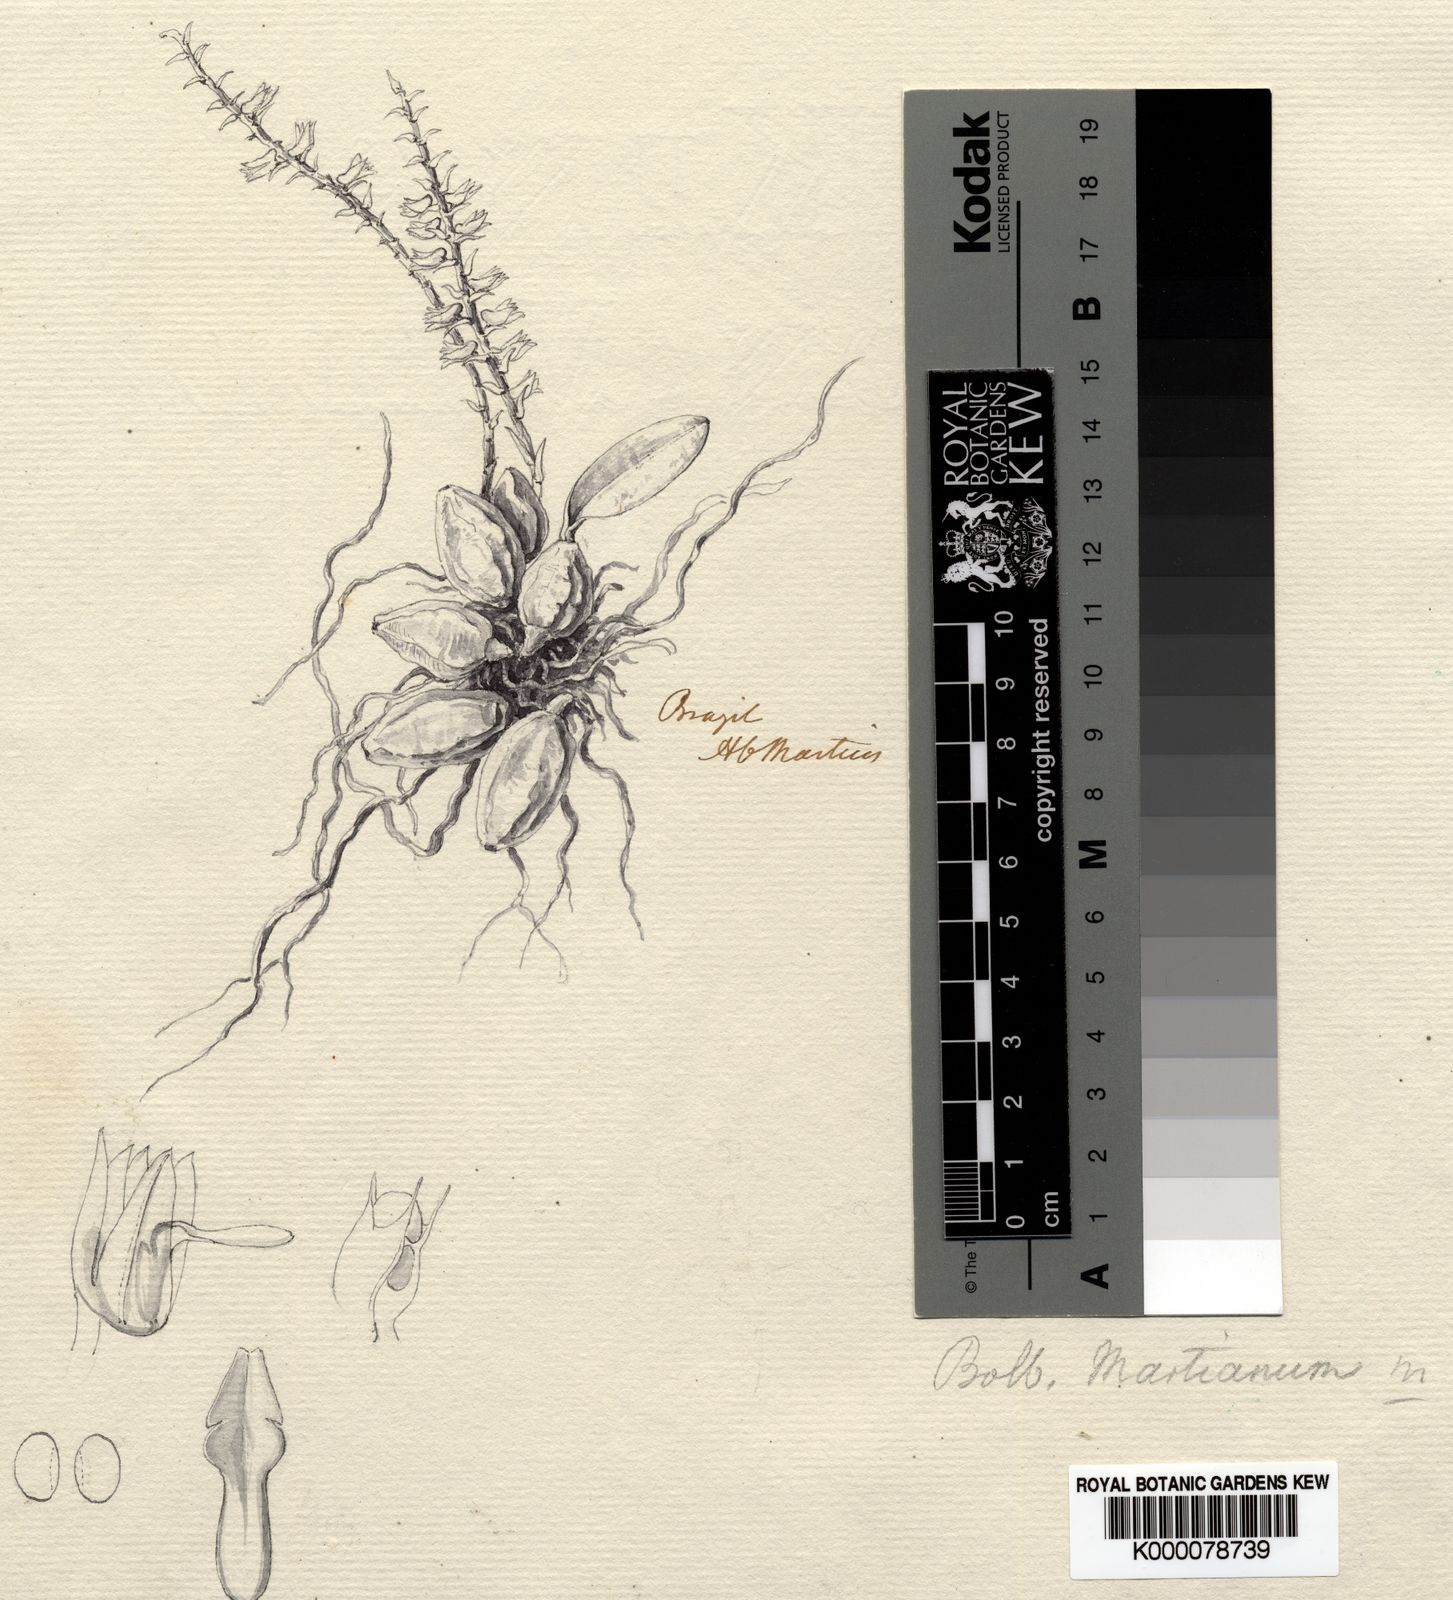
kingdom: Plantae
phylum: Tracheophyta
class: Liliopsida
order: Asparagales
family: Orchidaceae
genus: Bulbophyllum
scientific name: Bulbophyllum napellii
